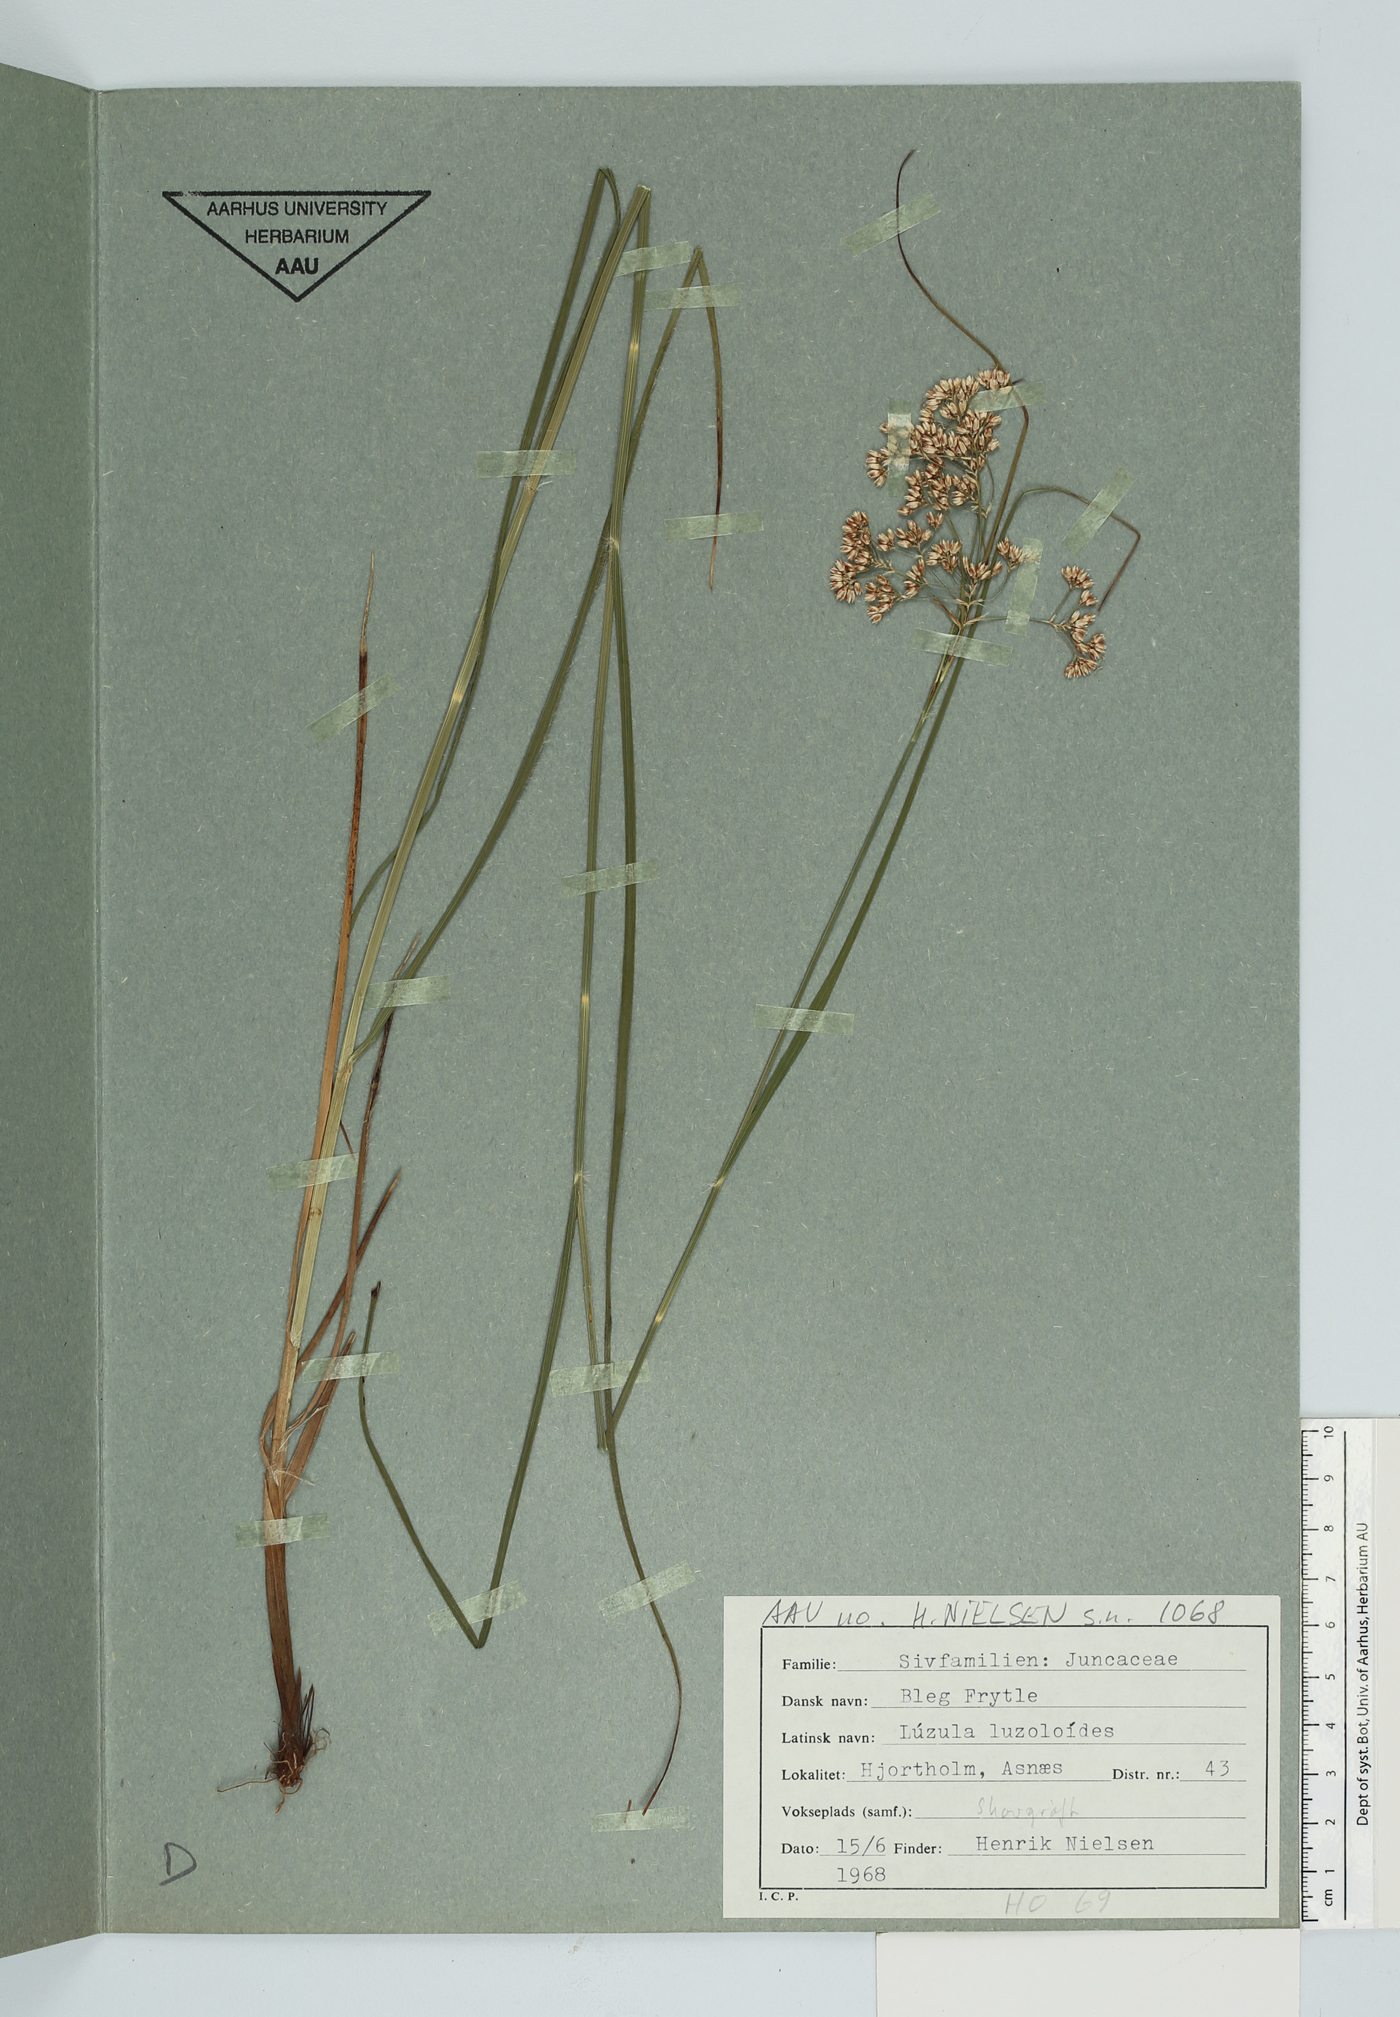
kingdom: Plantae
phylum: Tracheophyta
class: Liliopsida
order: Poales
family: Juncaceae
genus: Luzula
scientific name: Luzula luzuloides
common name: White wood-rush
